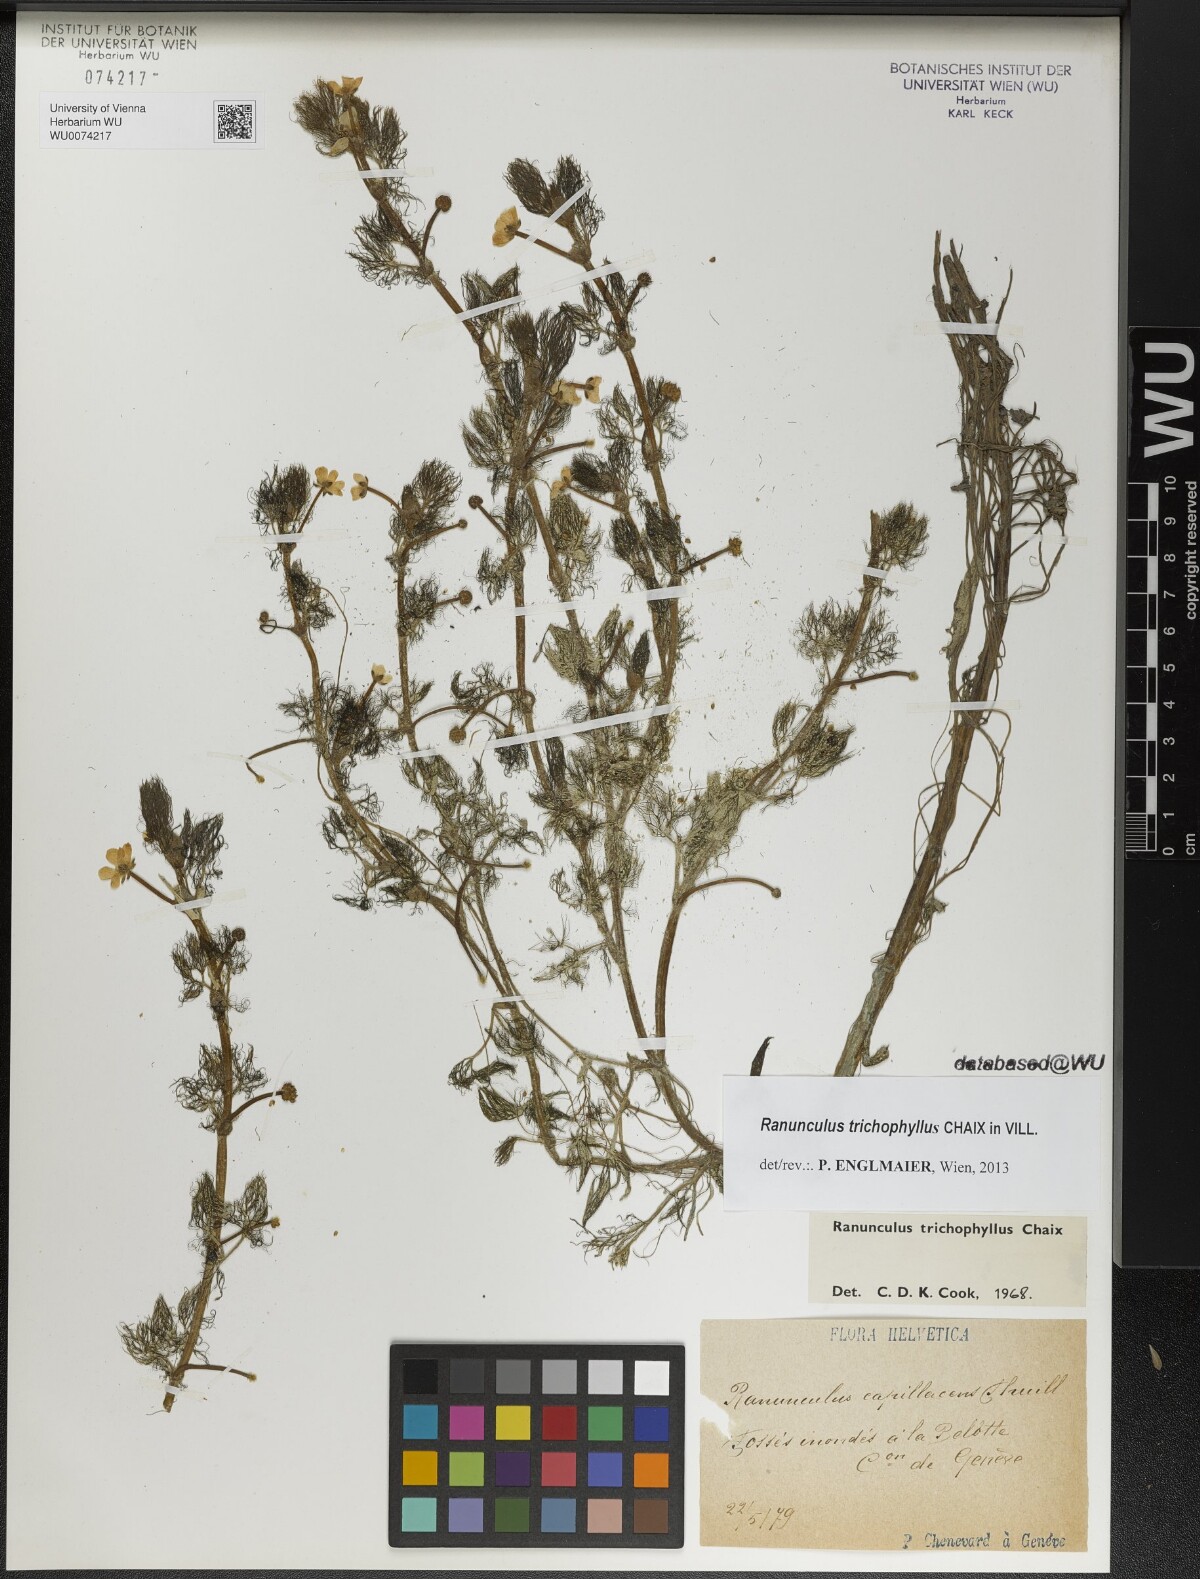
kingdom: Plantae
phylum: Tracheophyta
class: Magnoliopsida
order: Ranunculales
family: Ranunculaceae
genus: Ranunculus
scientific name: Ranunculus trichophyllus
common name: Thread-leaved water-crowfoot
